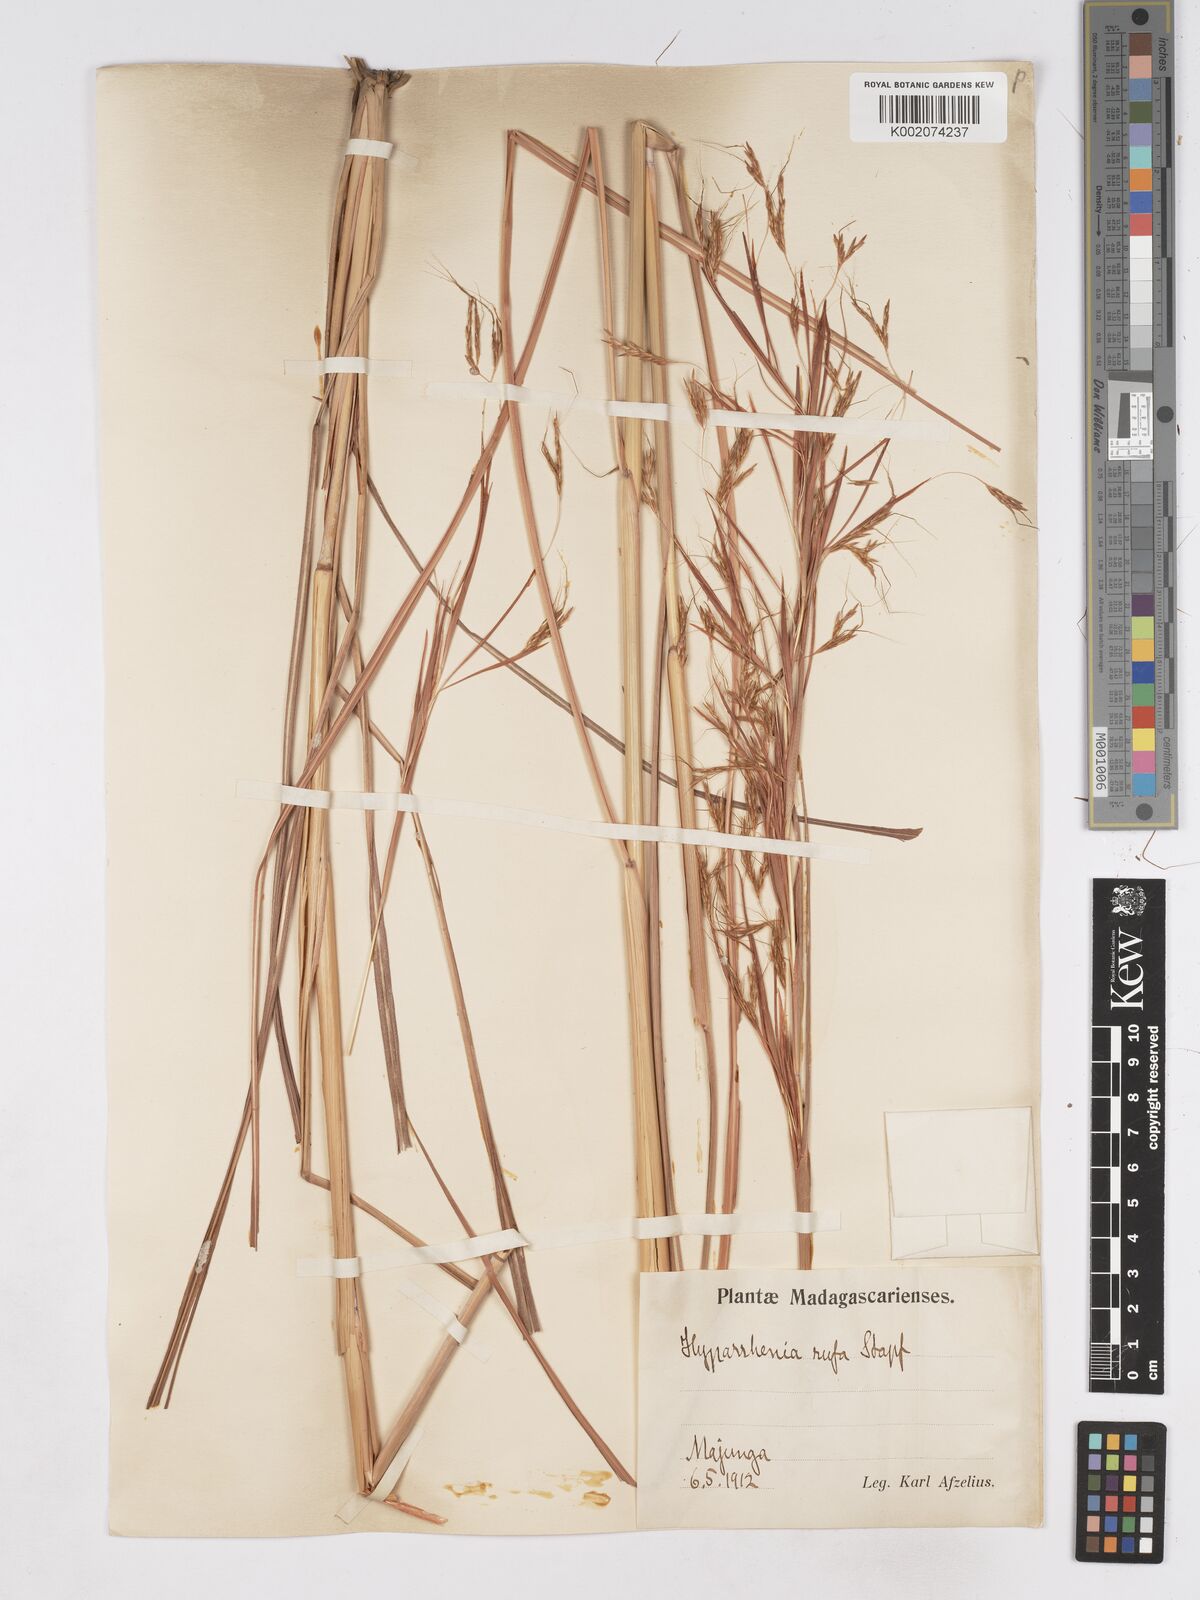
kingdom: Plantae
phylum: Tracheophyta
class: Liliopsida
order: Poales
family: Poaceae
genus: Hyparrhenia
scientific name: Hyparrhenia rufa
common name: Jaraguagrass
